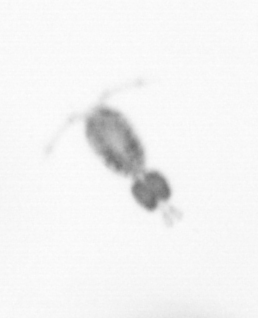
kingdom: Animalia
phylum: Arthropoda
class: Copepoda
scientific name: Copepoda
